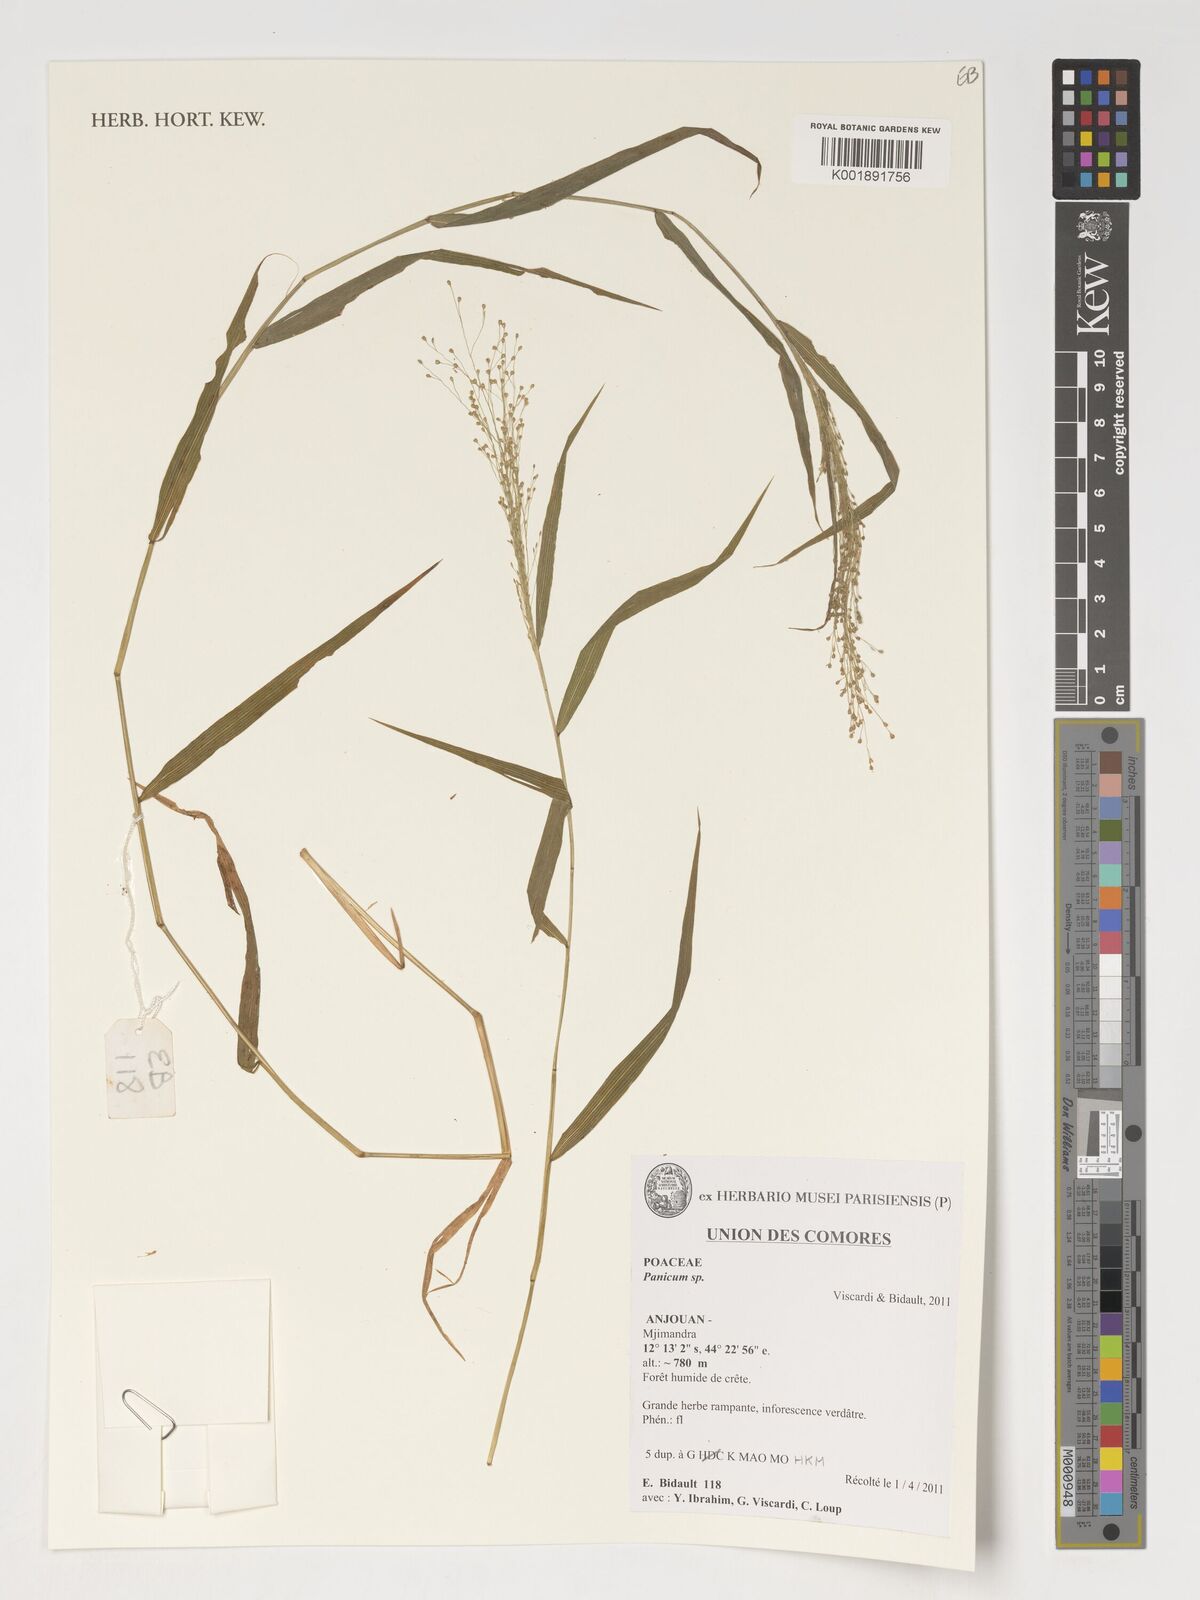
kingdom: Plantae
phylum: Tracheophyta
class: Liliopsida
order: Poales
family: Poaceae
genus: Panicum
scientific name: Panicum
